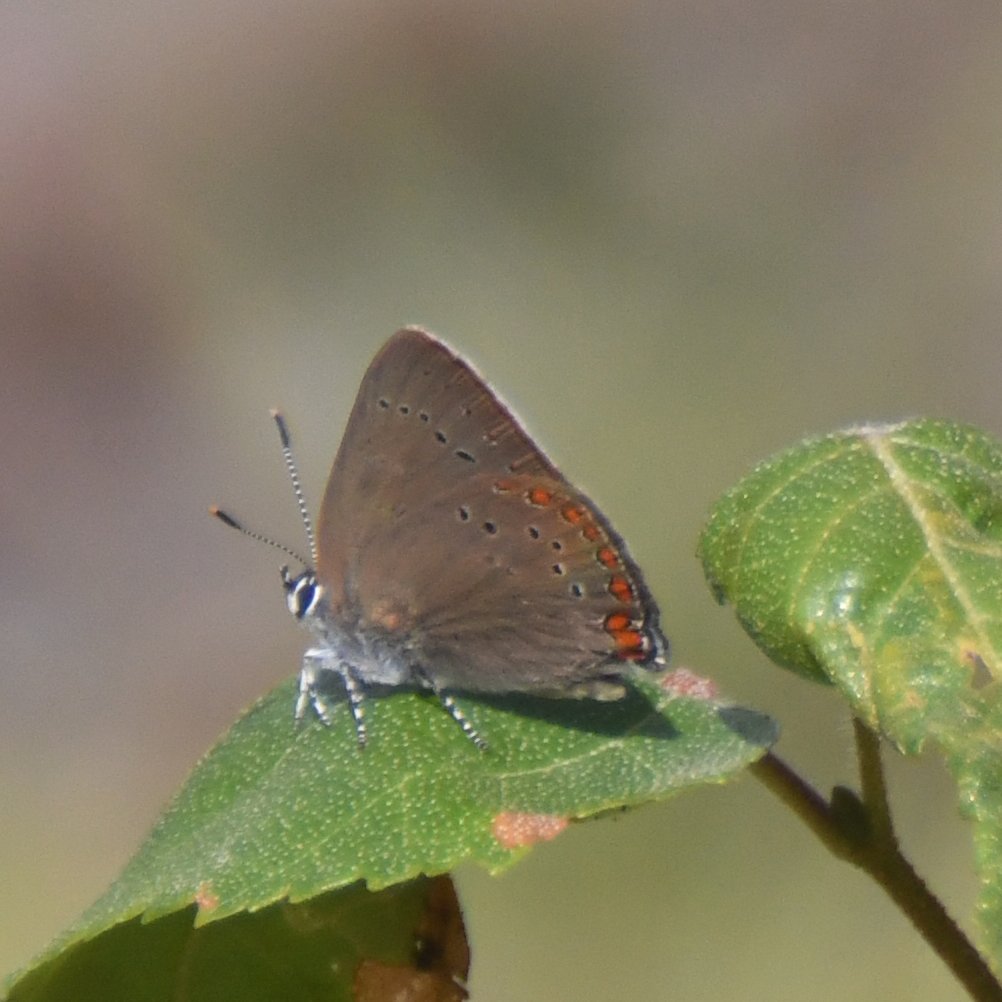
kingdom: Animalia
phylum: Arthropoda
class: Insecta
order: Lepidoptera
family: Lycaenidae
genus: Harkenclenus
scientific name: Harkenclenus titus
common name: Coral Hairstreak
